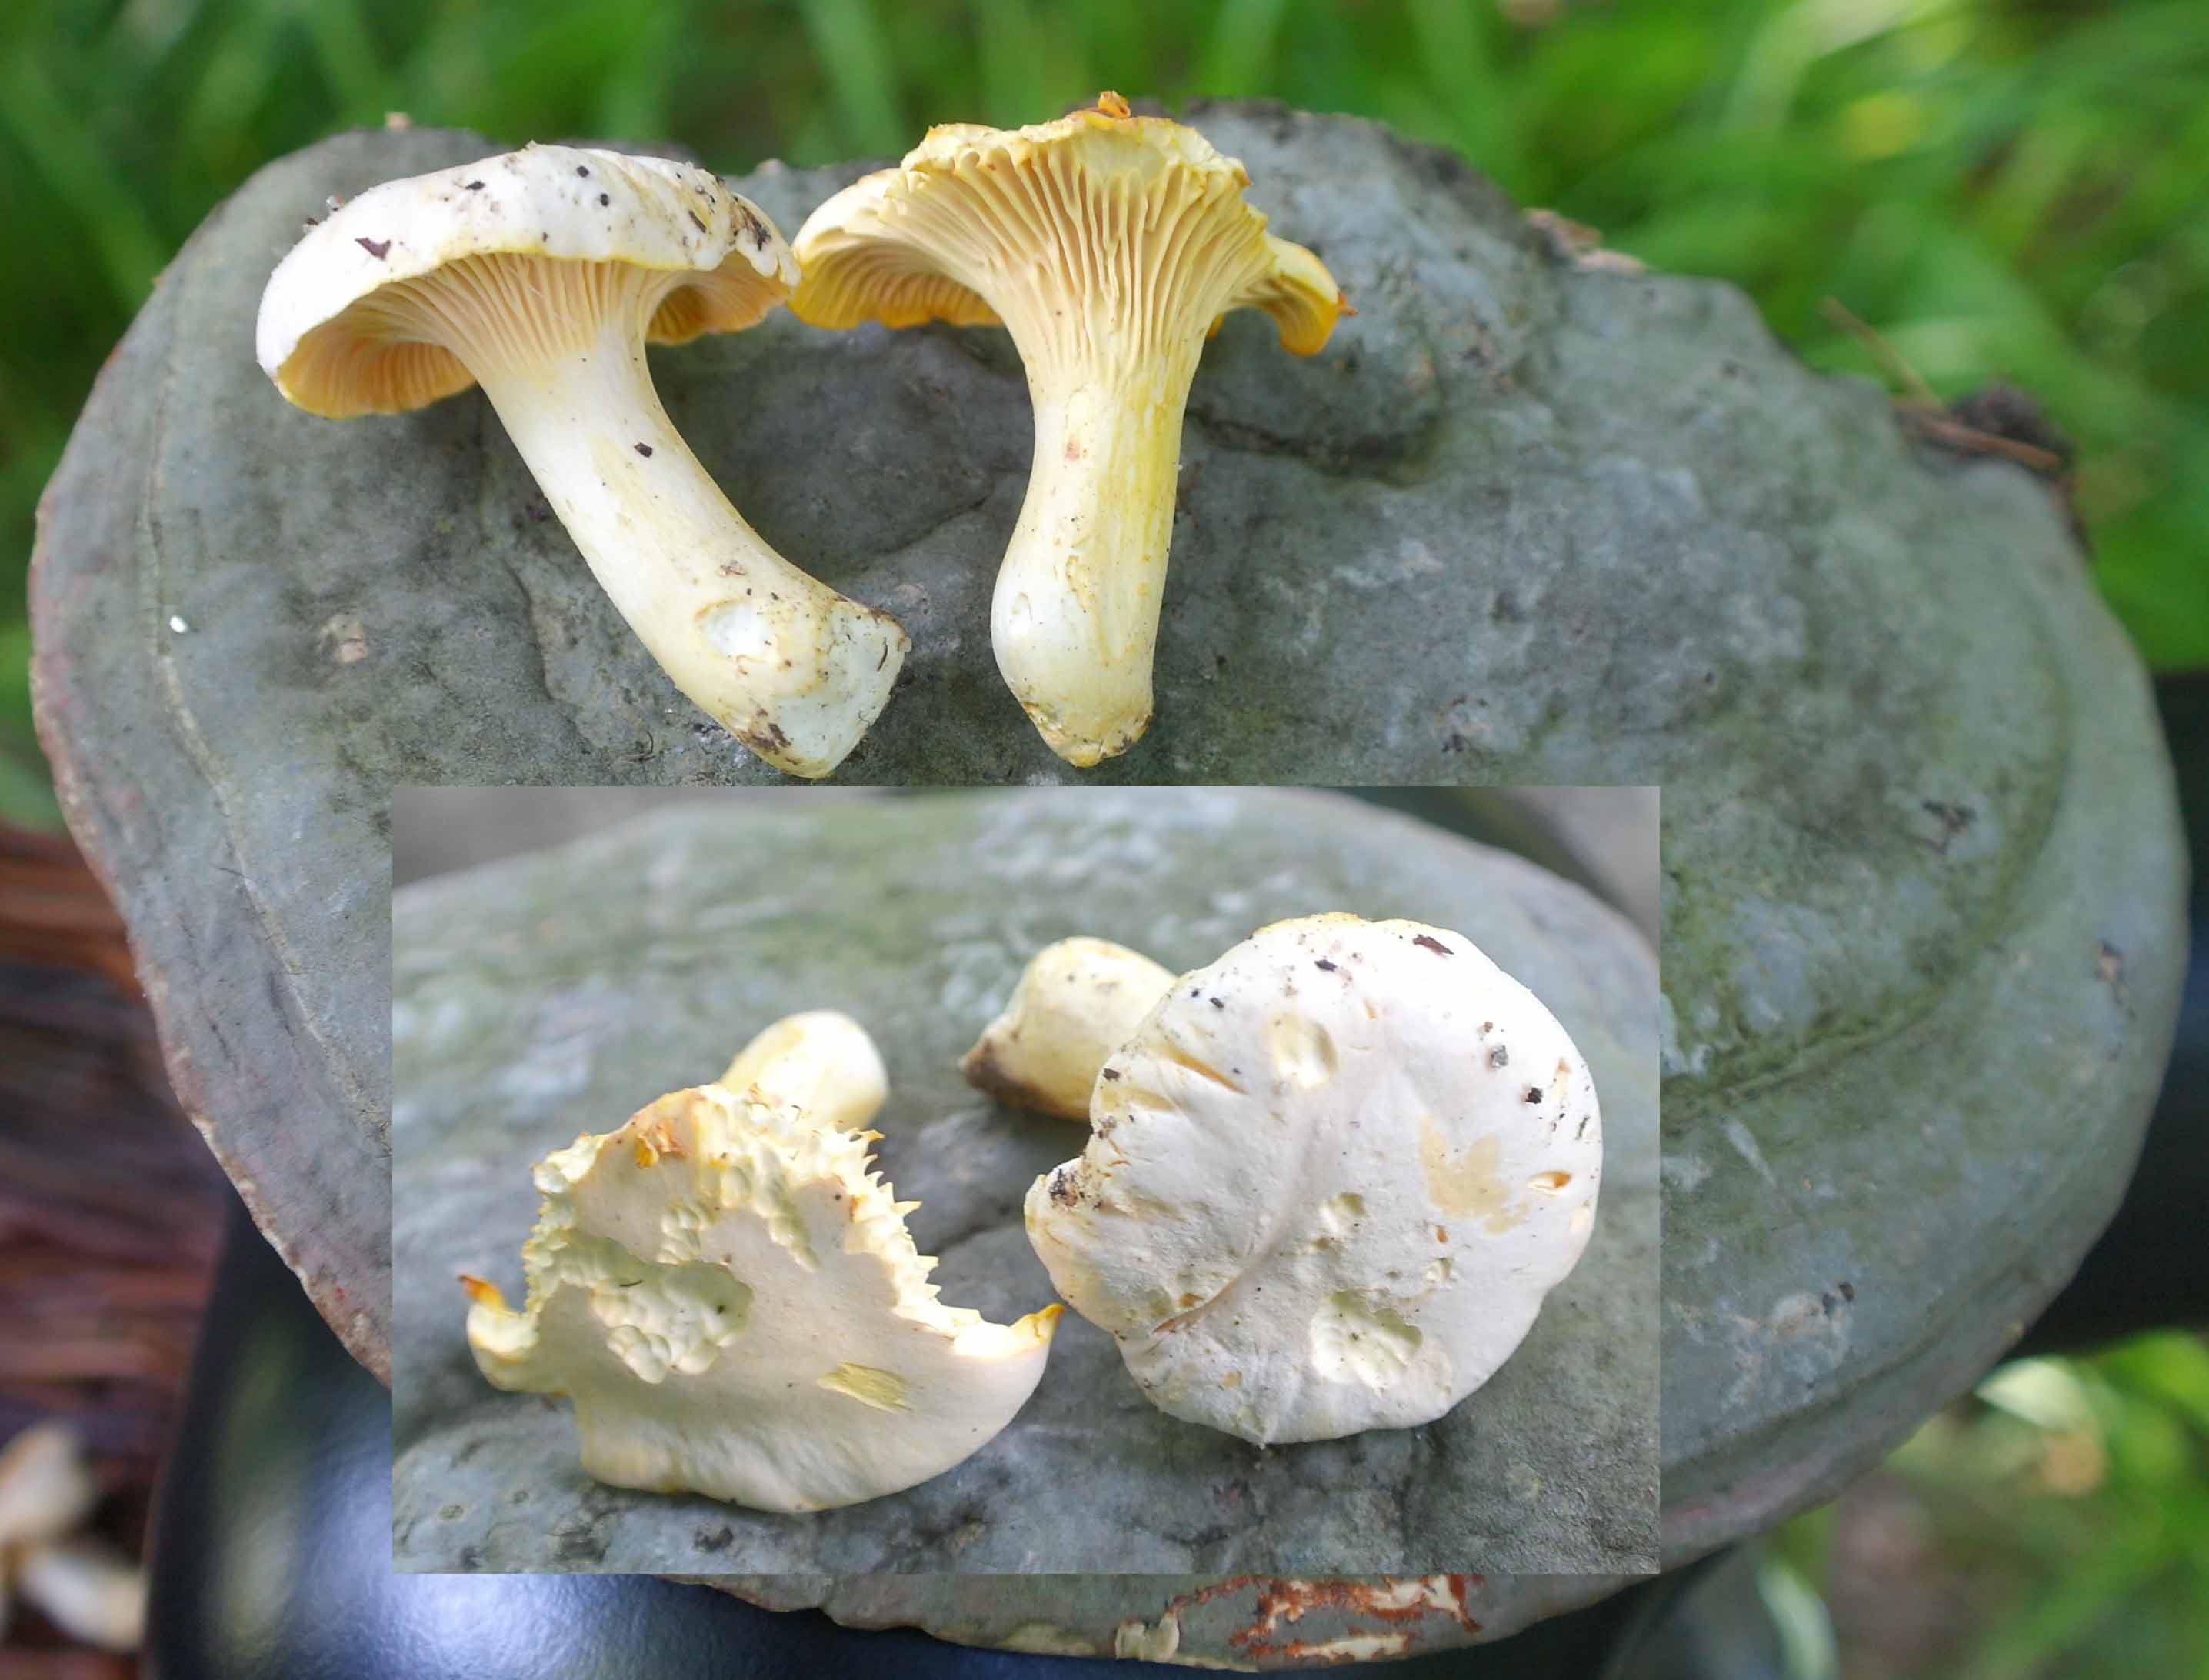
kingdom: Fungi
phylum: Basidiomycota
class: Agaricomycetes
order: Cantharellales
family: Hydnaceae
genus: Cantharellus
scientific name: Cantharellus pallens
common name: bleg kantarel
